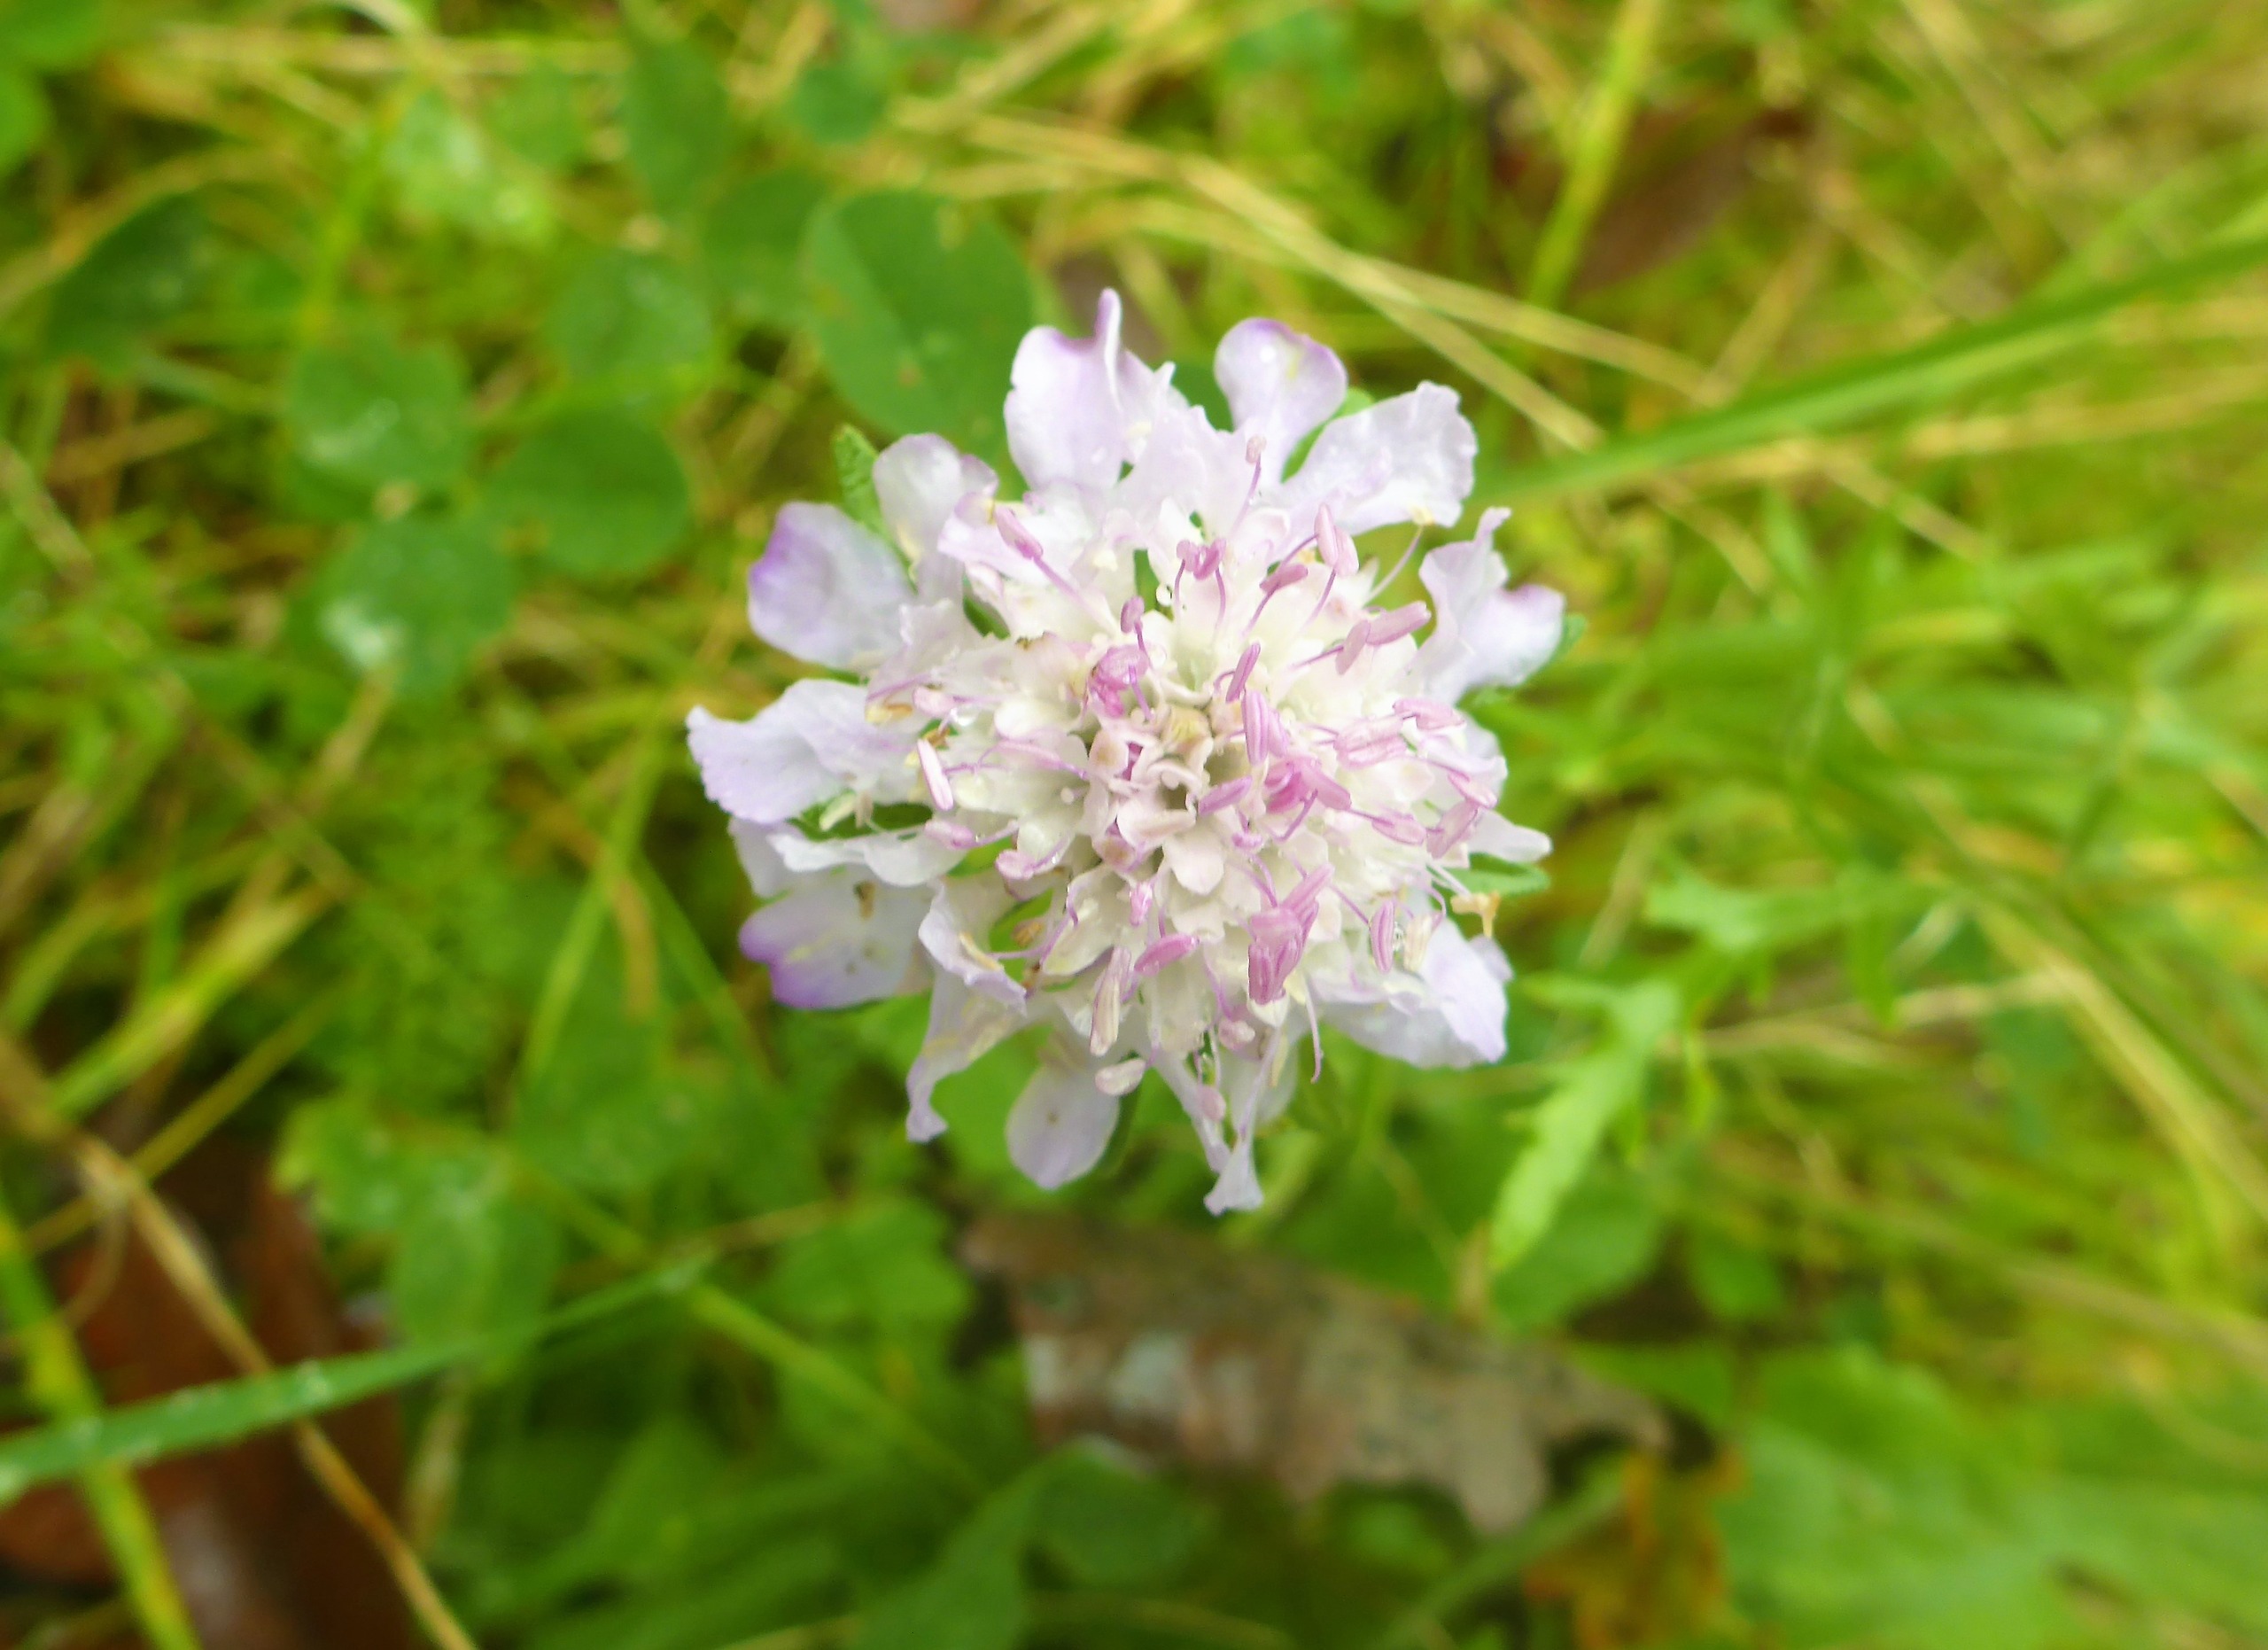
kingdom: Plantae
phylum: Tracheophyta
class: Magnoliopsida
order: Dipsacales
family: Caprifoliaceae
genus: Knautia
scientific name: Knautia arvensis
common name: Blåhat
